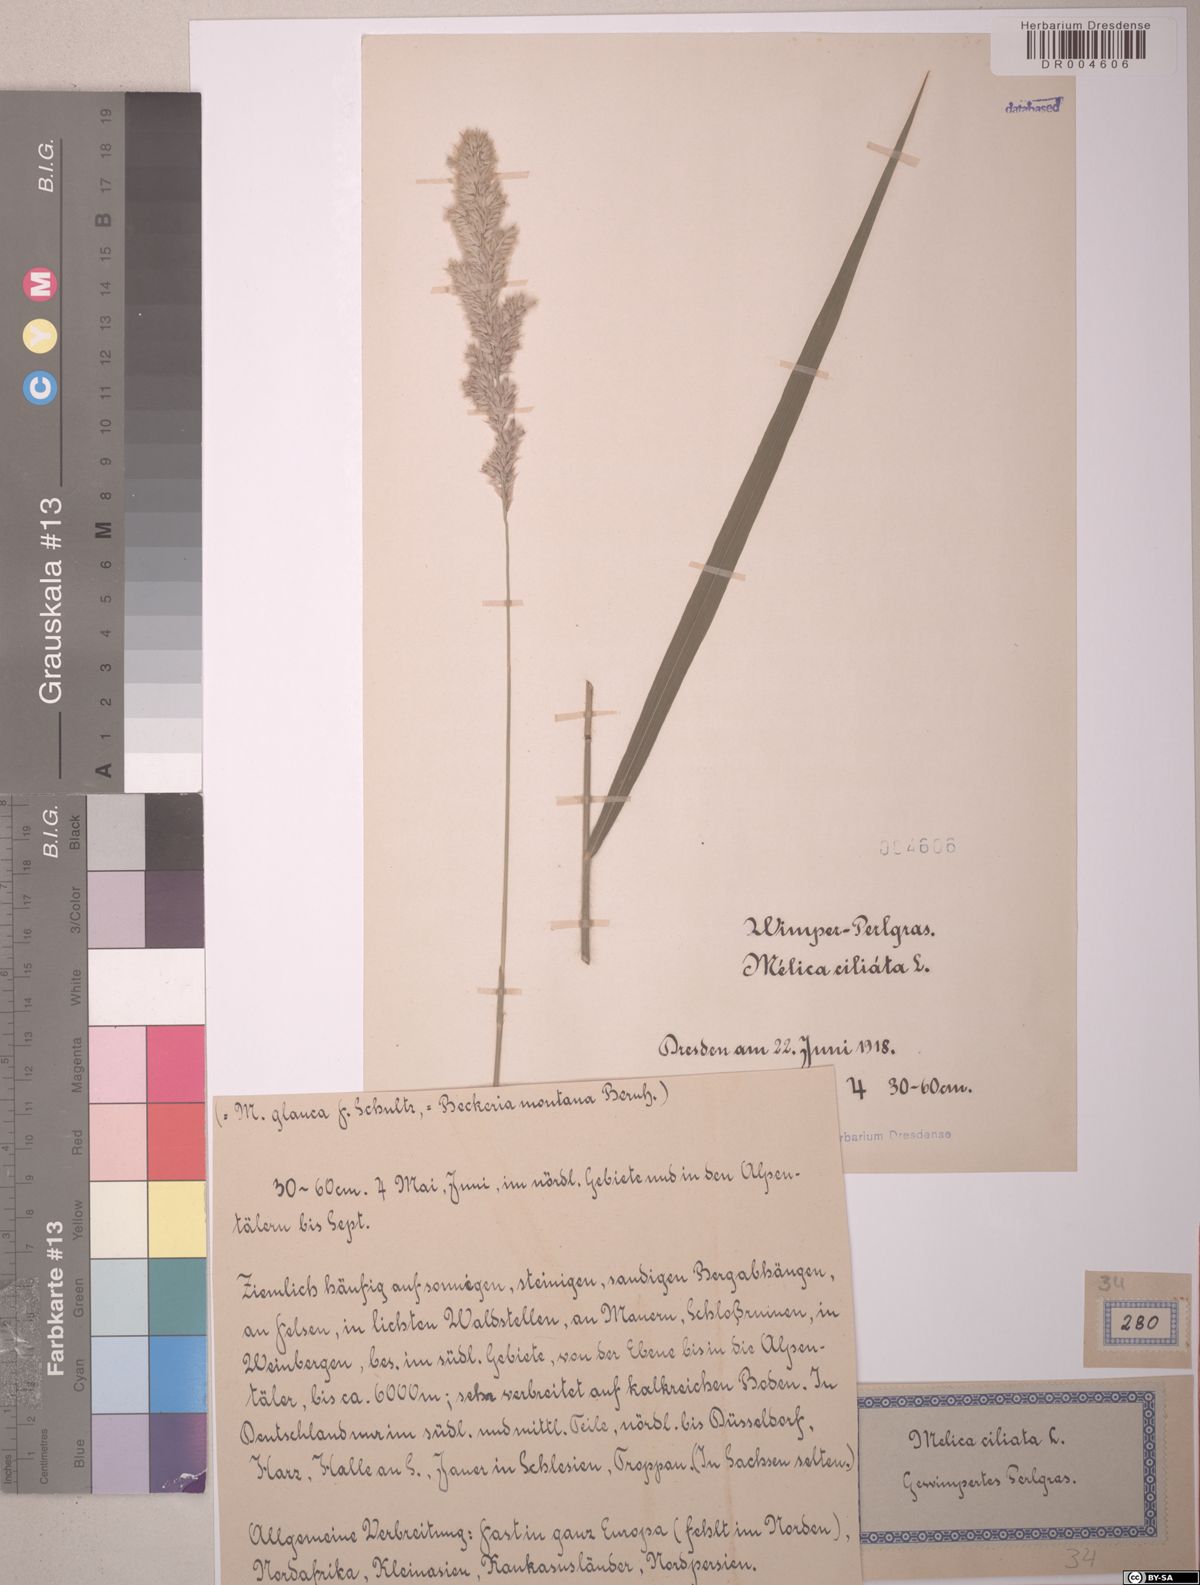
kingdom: Plantae
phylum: Tracheophyta
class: Liliopsida
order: Poales
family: Poaceae
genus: Melica
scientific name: Melica ciliata
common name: Hairy melicgrass
